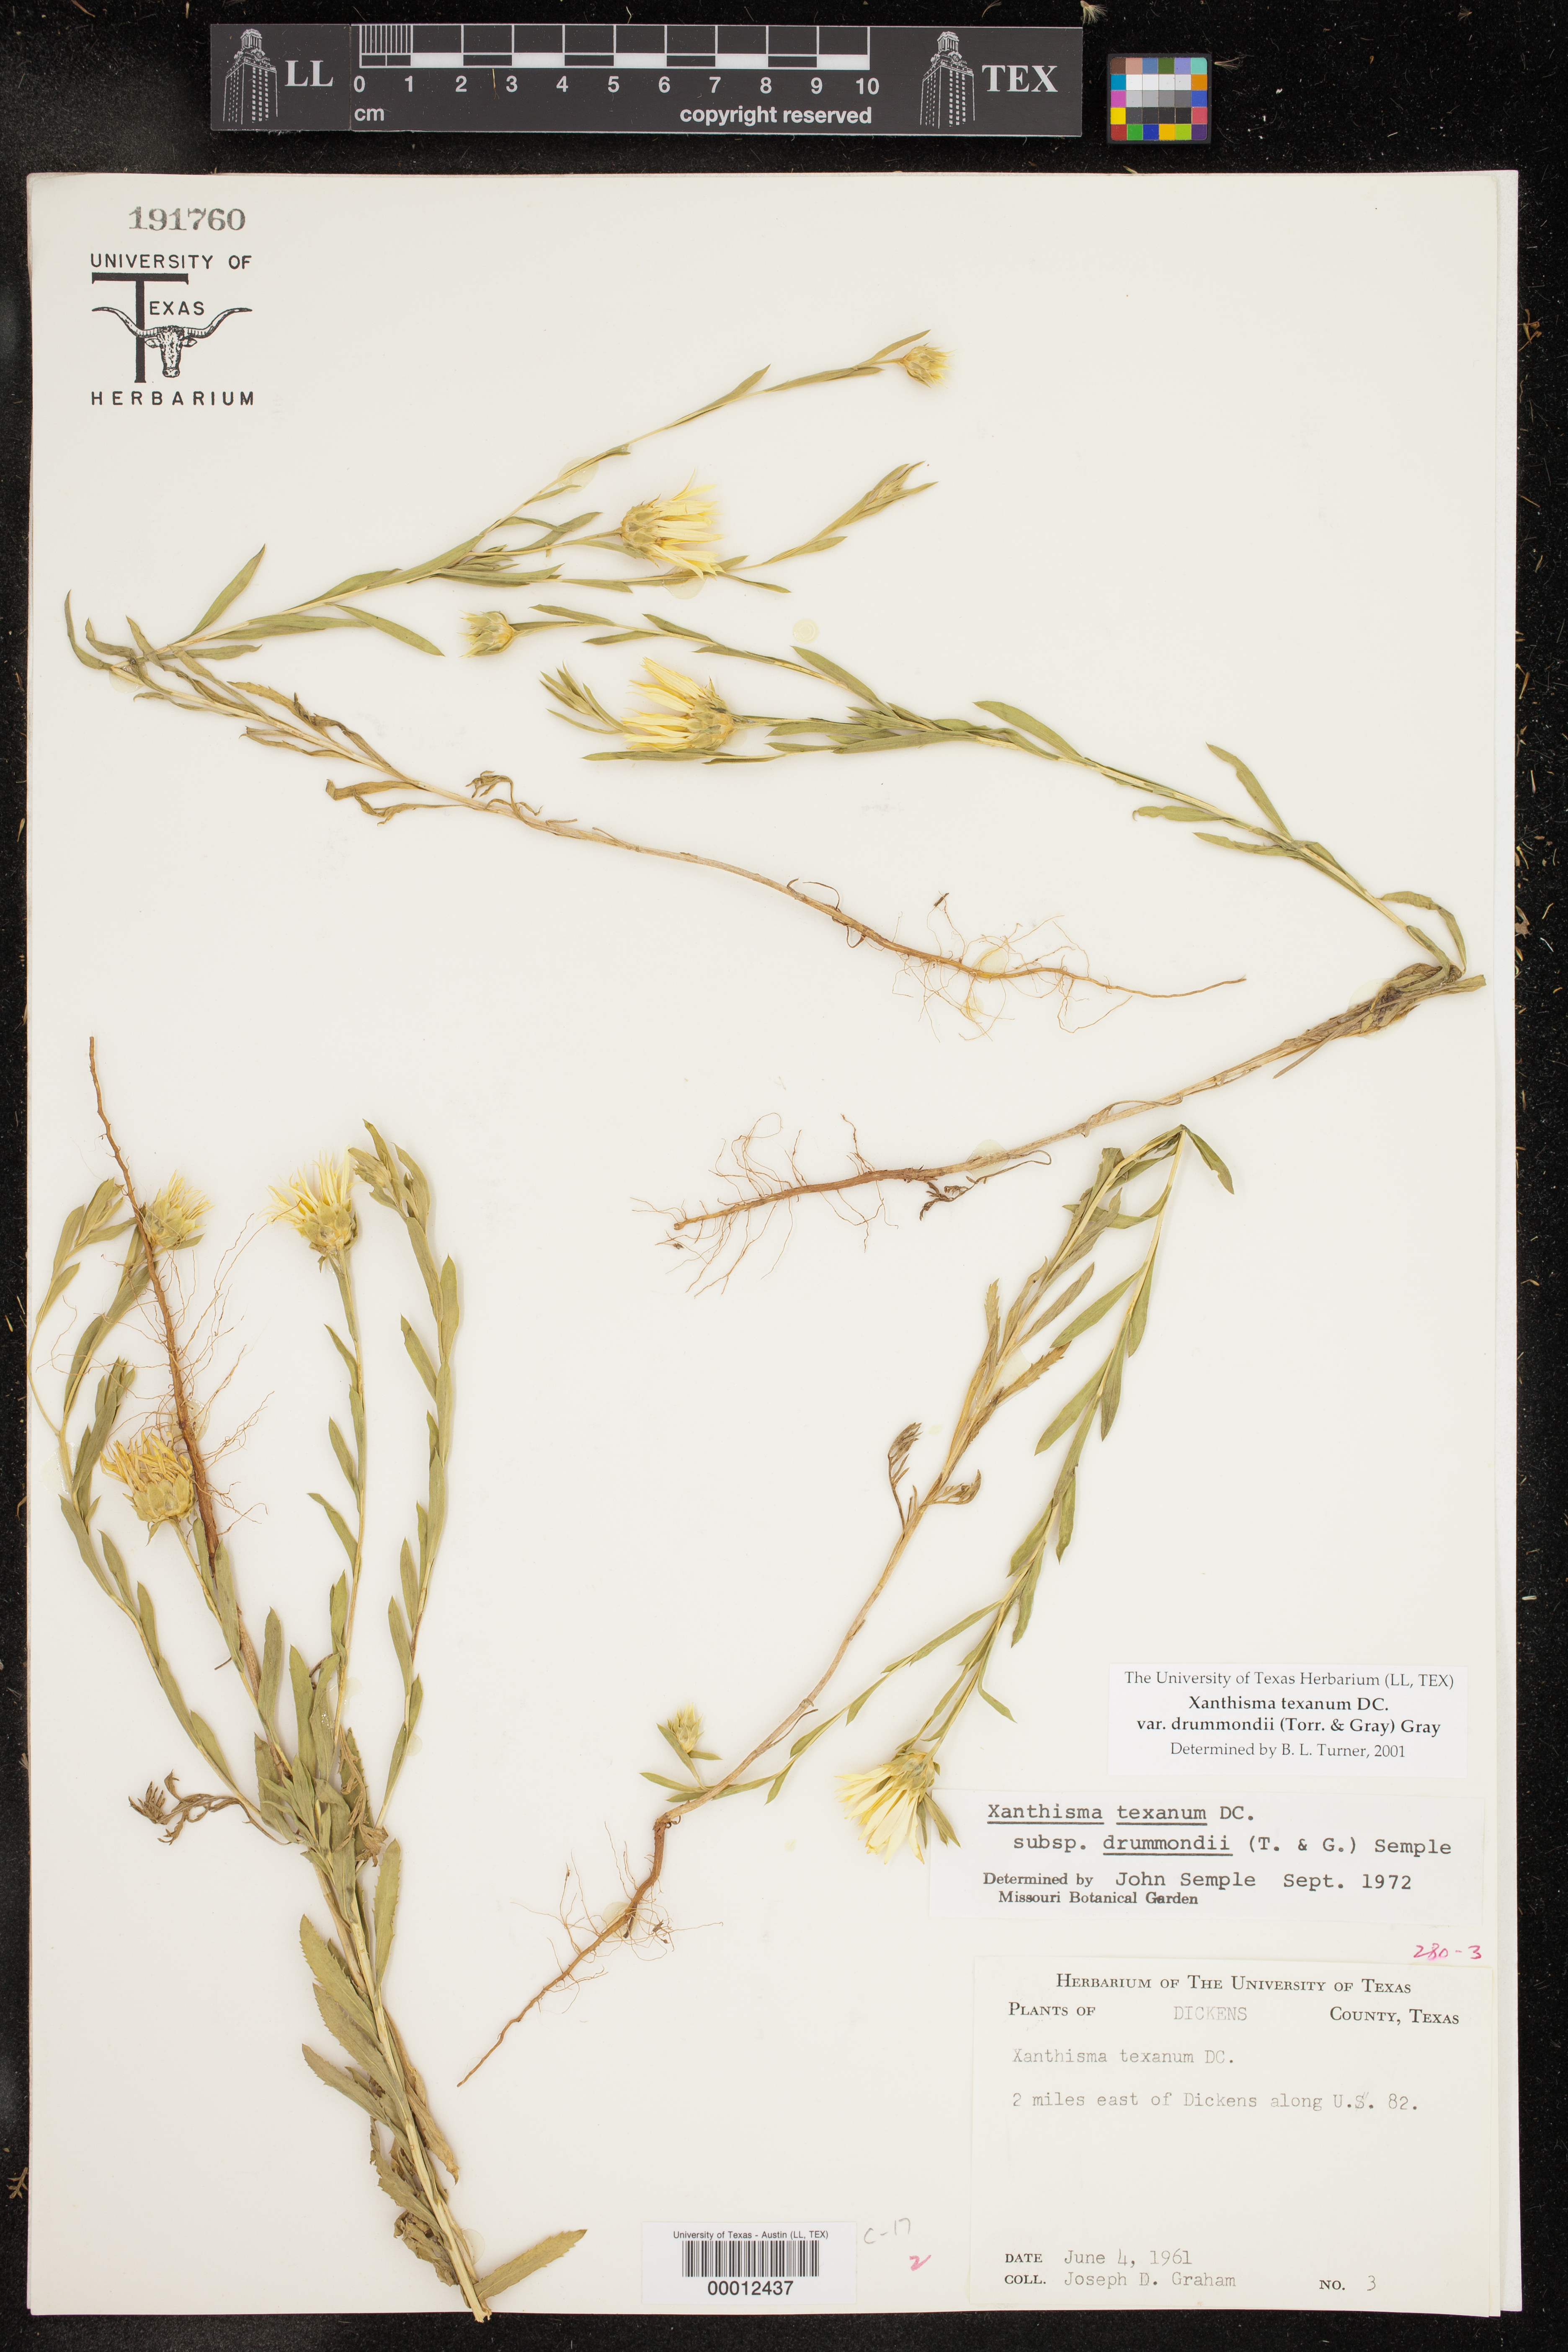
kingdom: Plantae
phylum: Tracheophyta
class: Magnoliopsida
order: Asterales
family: Asteraceae
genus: Xanthisma
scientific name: Xanthisma texanum
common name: Texas sleepy daisy
